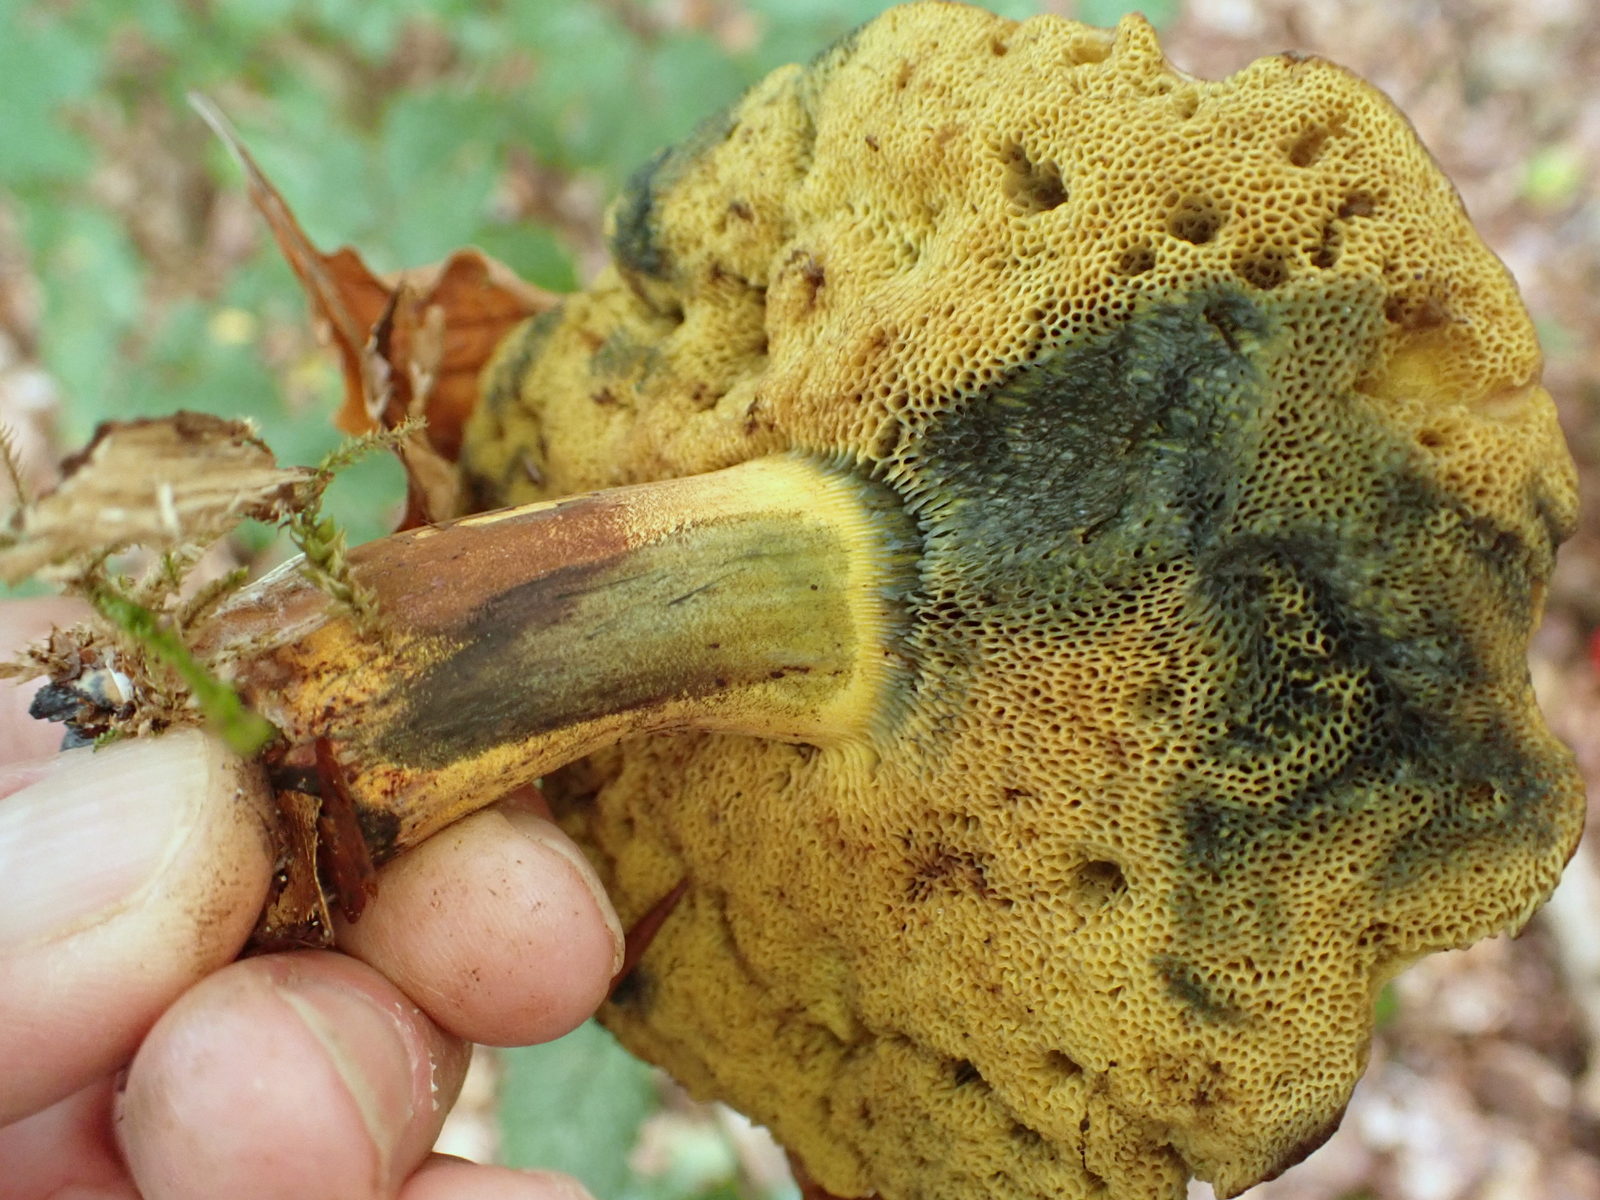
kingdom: Fungi
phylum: Basidiomycota
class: Agaricomycetes
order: Boletales
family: Boletaceae
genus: Cyanoboletus
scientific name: Cyanoboletus pulverulentus
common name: sortblånende rørhat
